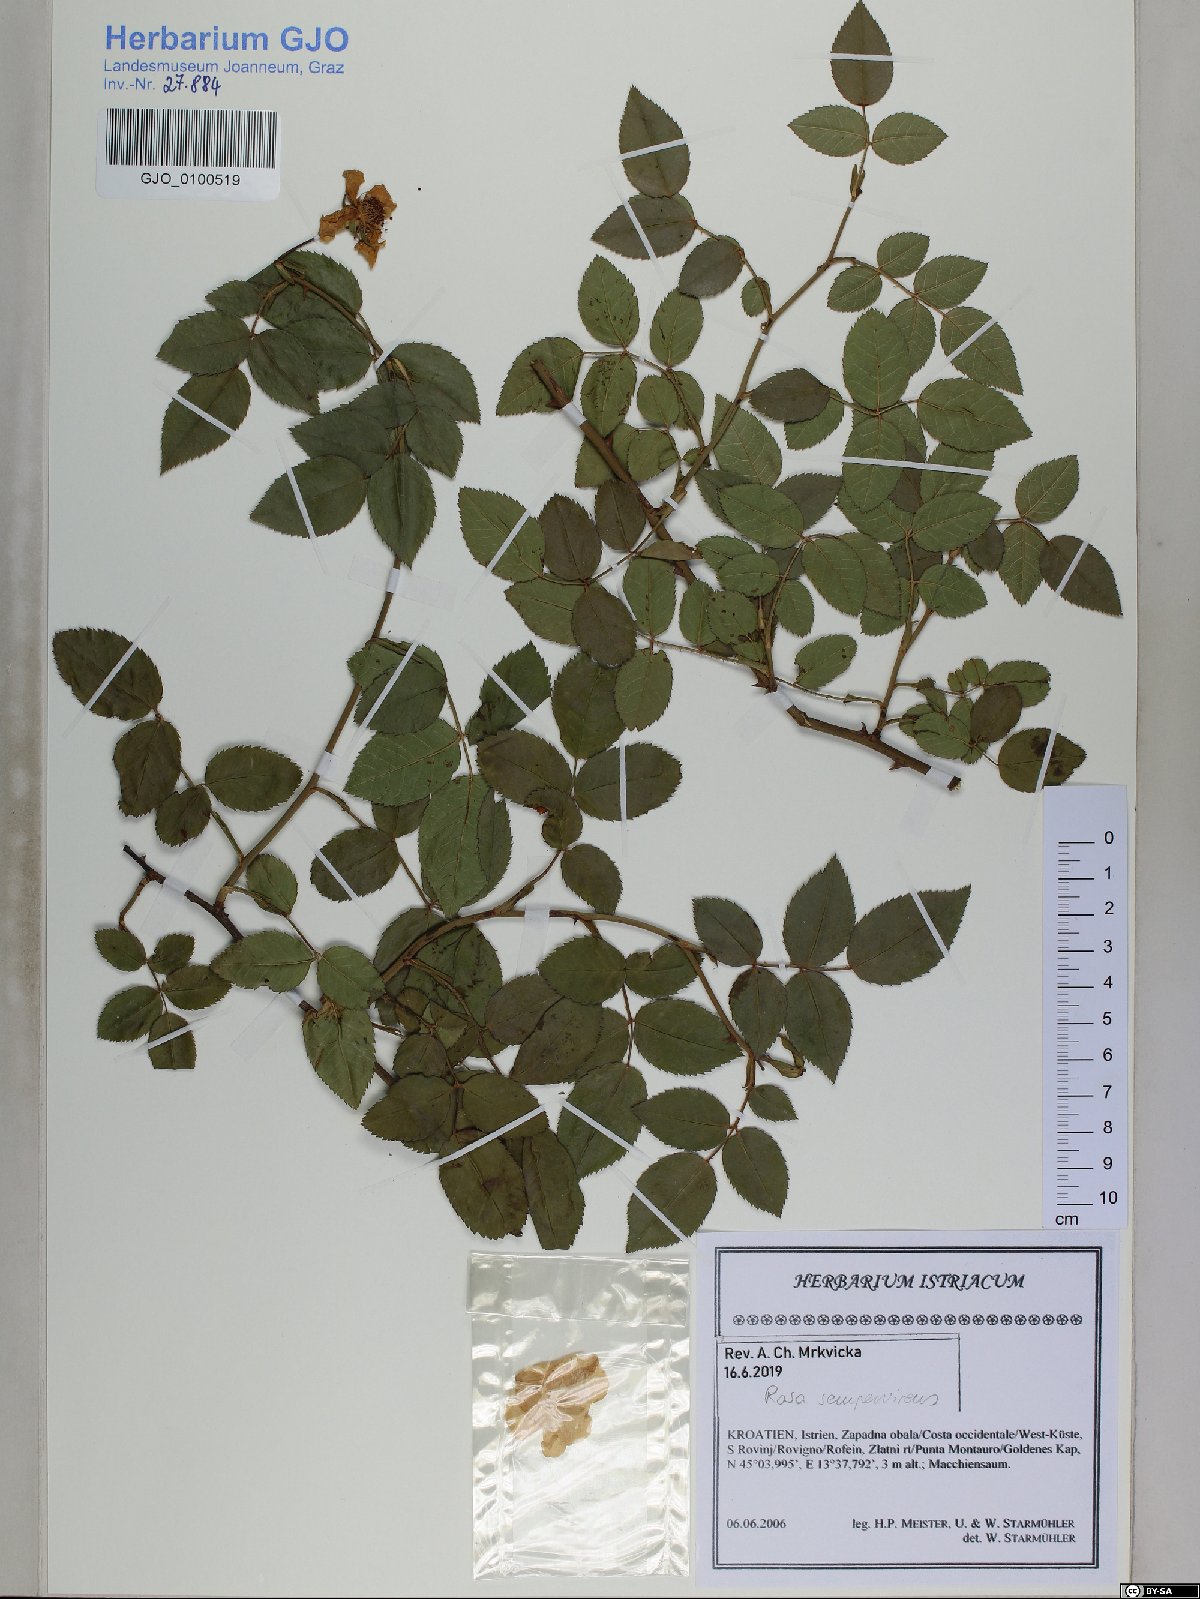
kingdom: Plantae
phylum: Tracheophyta
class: Magnoliopsida
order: Rosales
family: Rosaceae
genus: Rosa
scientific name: Rosa sempervirens
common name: Evergreen rose
